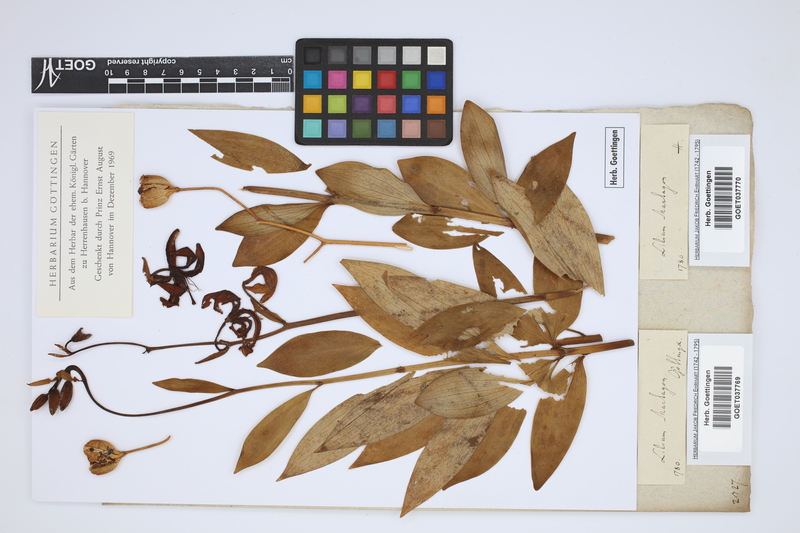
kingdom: Plantae
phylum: Tracheophyta
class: Liliopsida
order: Liliales
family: Liliaceae
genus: Lilium
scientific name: Lilium martagon
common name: Martagon lily
